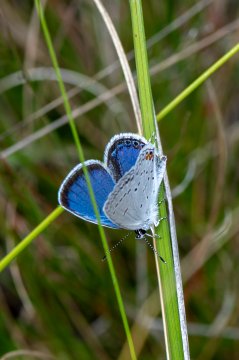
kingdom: Animalia
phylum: Arthropoda
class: Insecta
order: Lepidoptera
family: Lycaenidae
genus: Elkalyce
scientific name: Elkalyce comyntas
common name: Eastern Tailed-Blue
